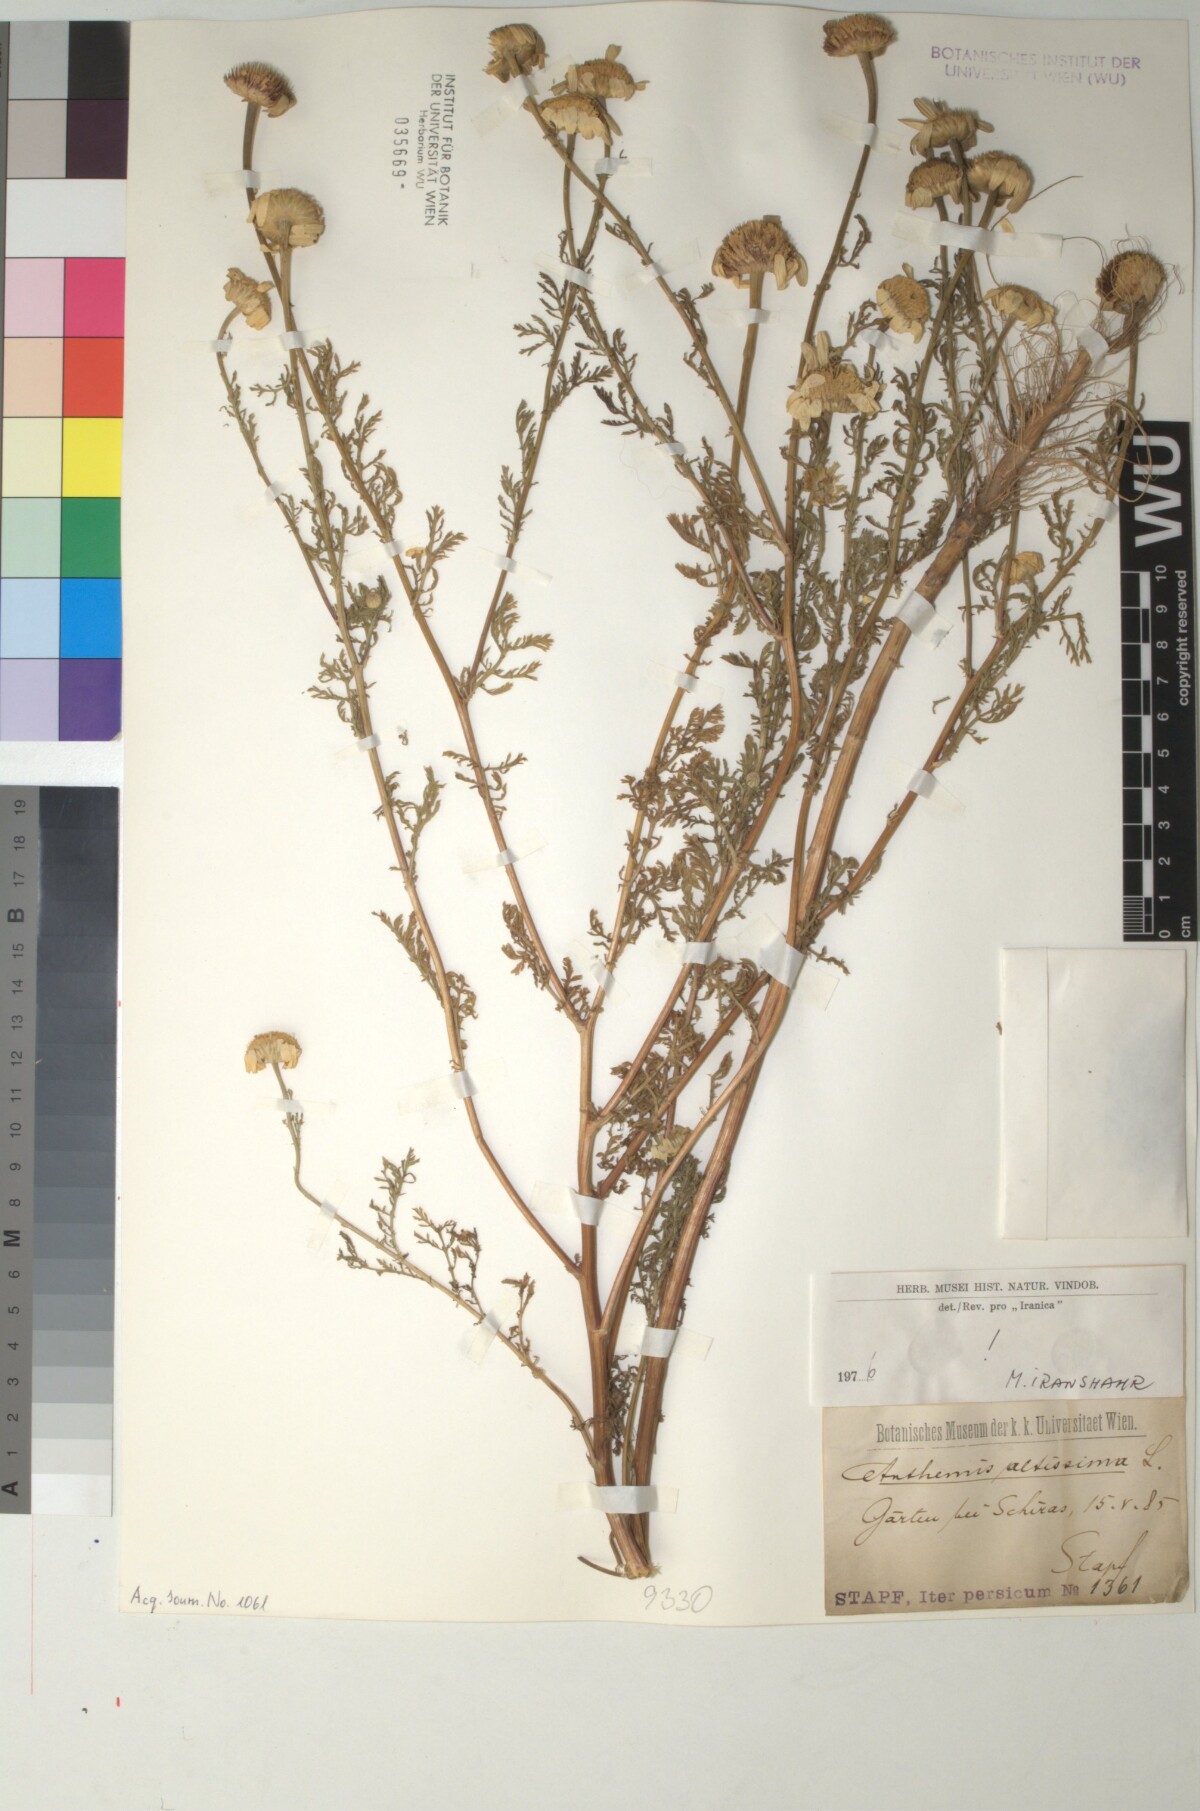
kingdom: Plantae
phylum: Tracheophyta
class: Magnoliopsida
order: Asterales
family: Asteraceae
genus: Cota
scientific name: Cota altissima
